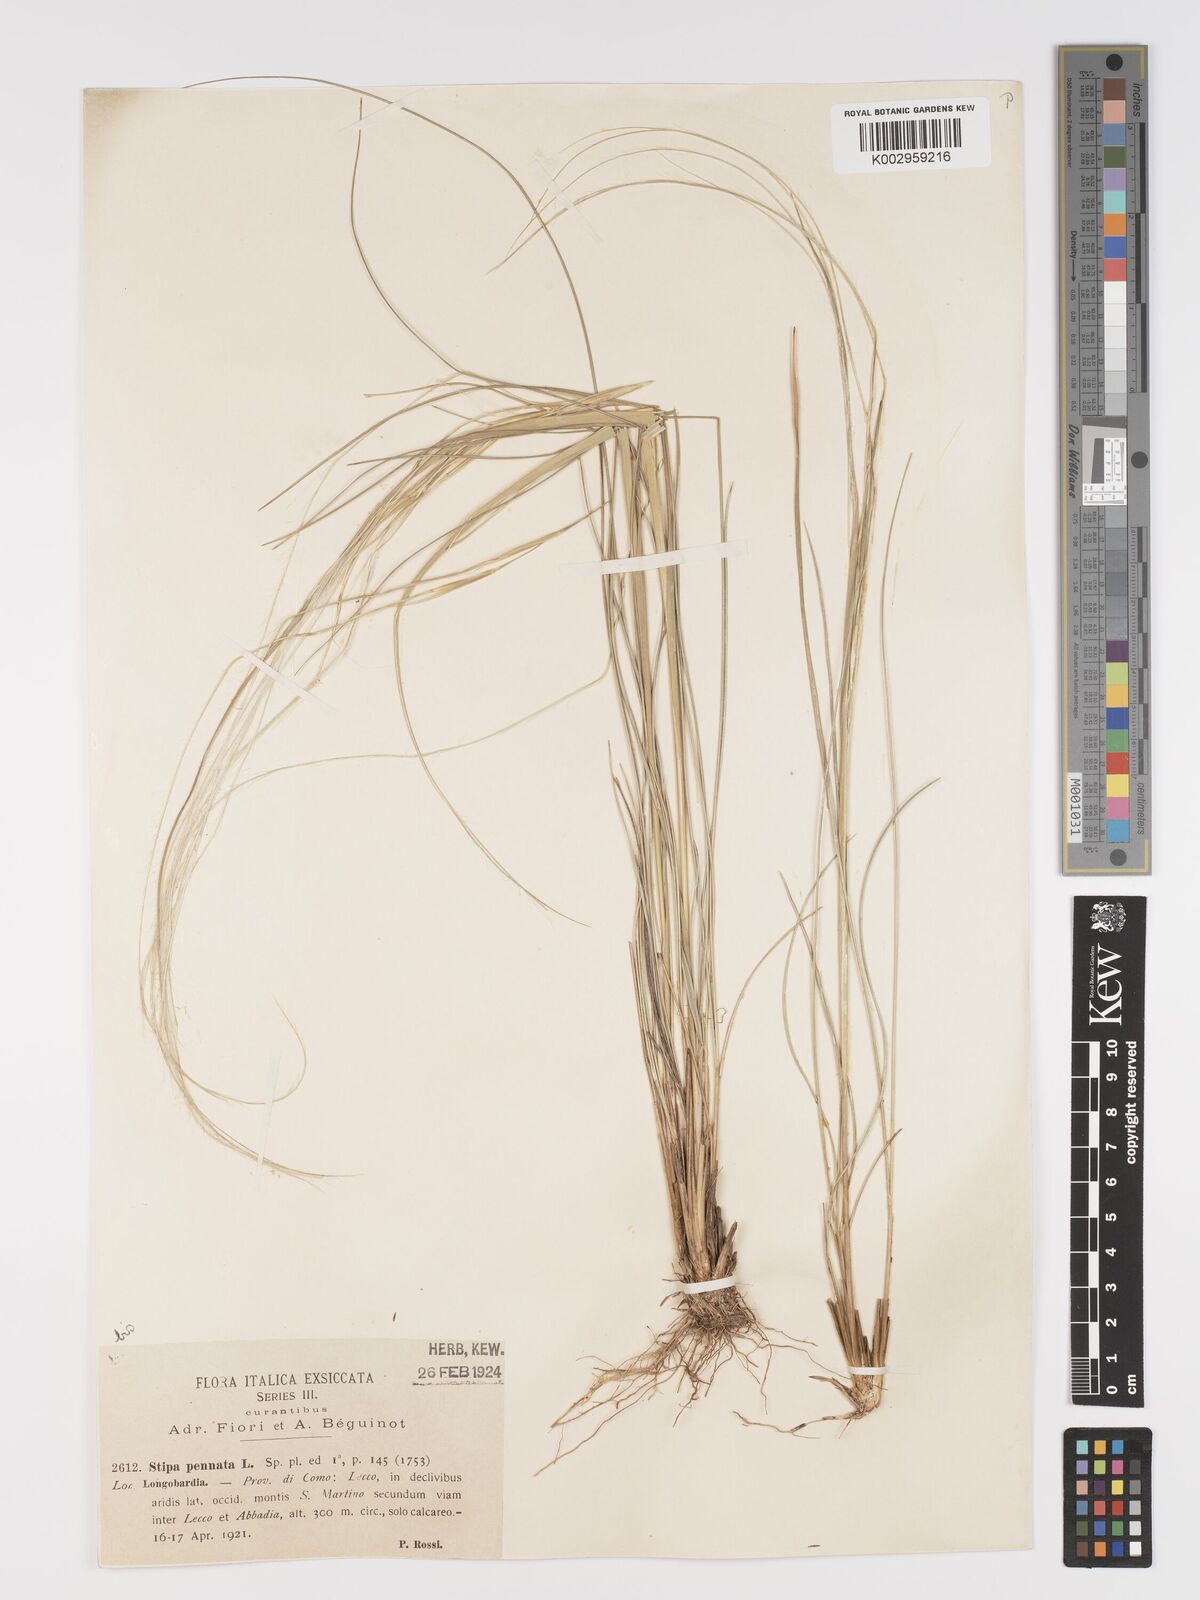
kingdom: Plantae
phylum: Tracheophyta
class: Liliopsida
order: Poales
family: Poaceae
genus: Stipa
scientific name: Stipa pennata
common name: European feather grass
